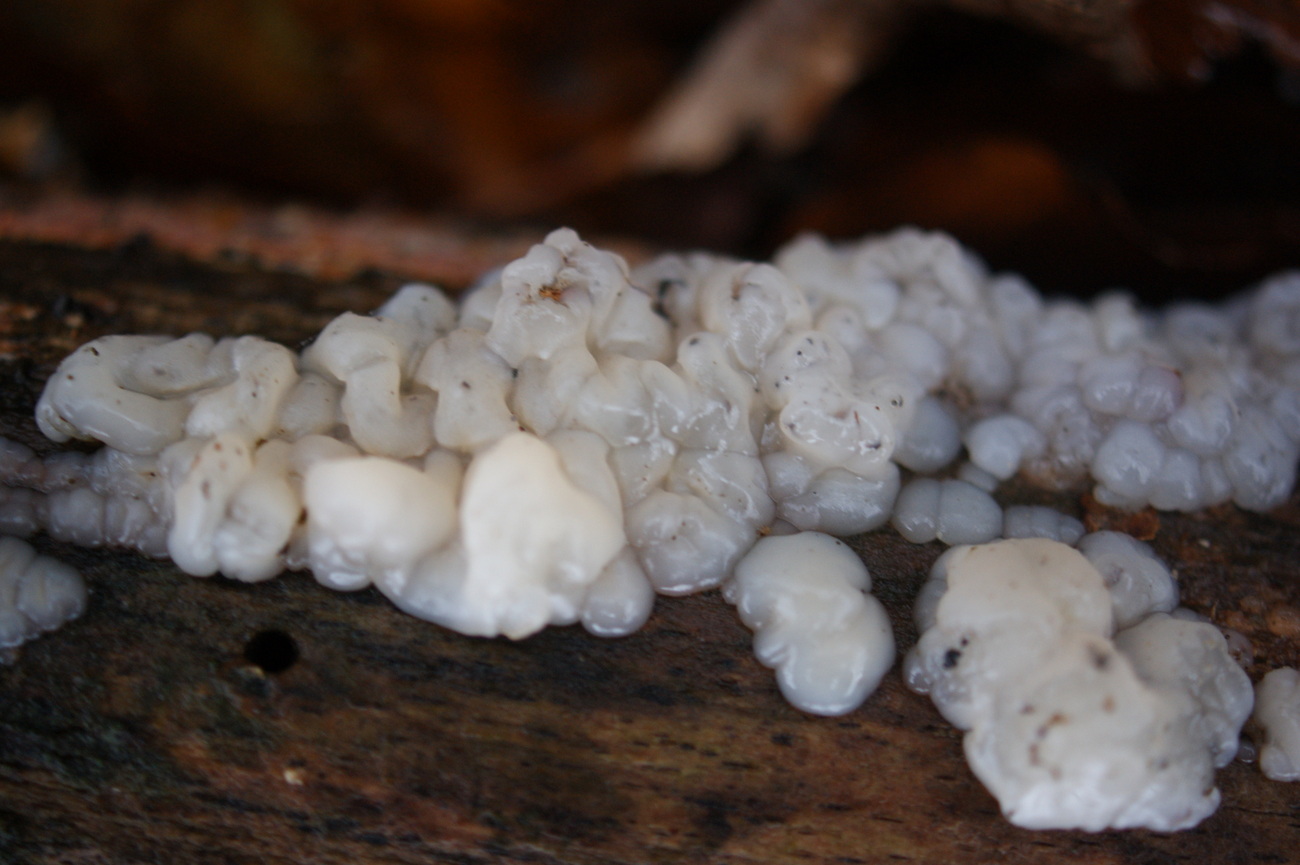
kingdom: Fungi
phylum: Basidiomycota
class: Agaricomycetes
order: Auriculariales
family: Auriculariaceae
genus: Exidia
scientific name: Exidia thuretiana
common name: hvidlig bævretop
